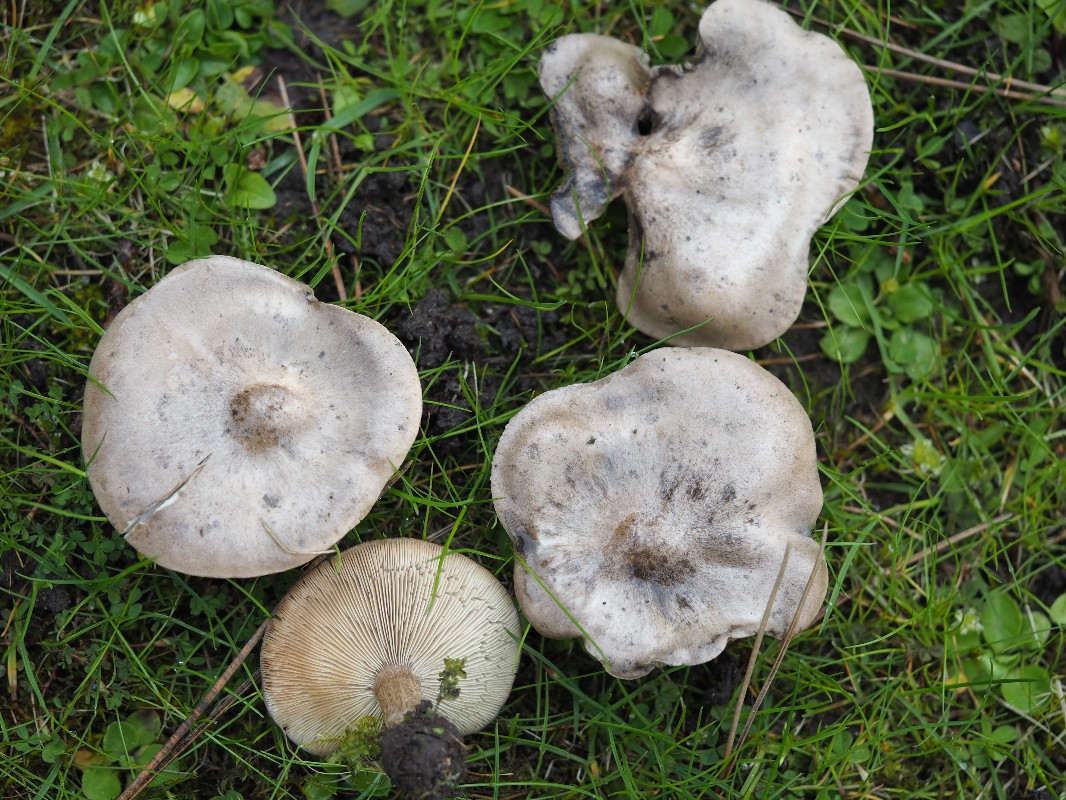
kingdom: Fungi
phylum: Basidiomycota
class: Agaricomycetes
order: Agaricales
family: Tricholomataceae
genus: Melanoleuca
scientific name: Melanoleuca
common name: munkehat
